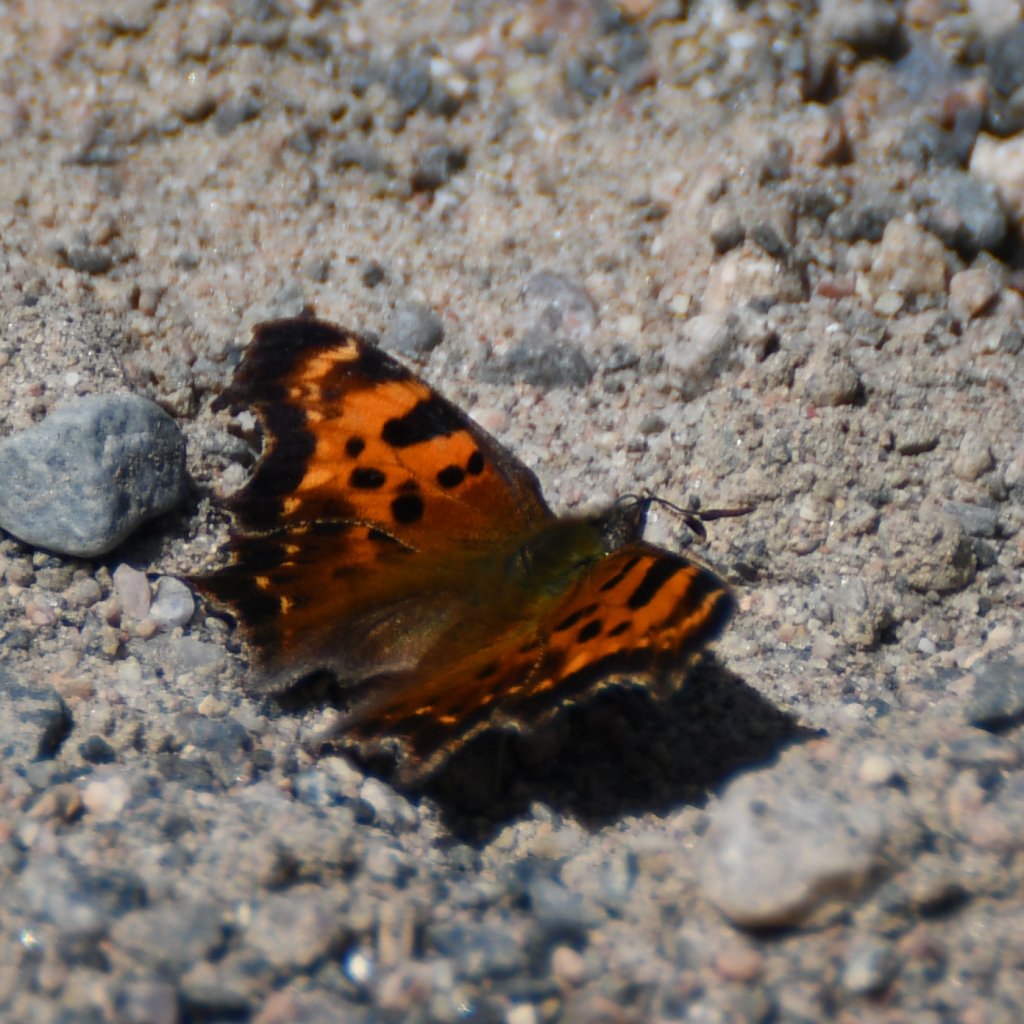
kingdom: Animalia
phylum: Arthropoda
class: Insecta
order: Lepidoptera
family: Nymphalidae
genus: Polygonia
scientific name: Polygonia faunus
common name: Green Comma
